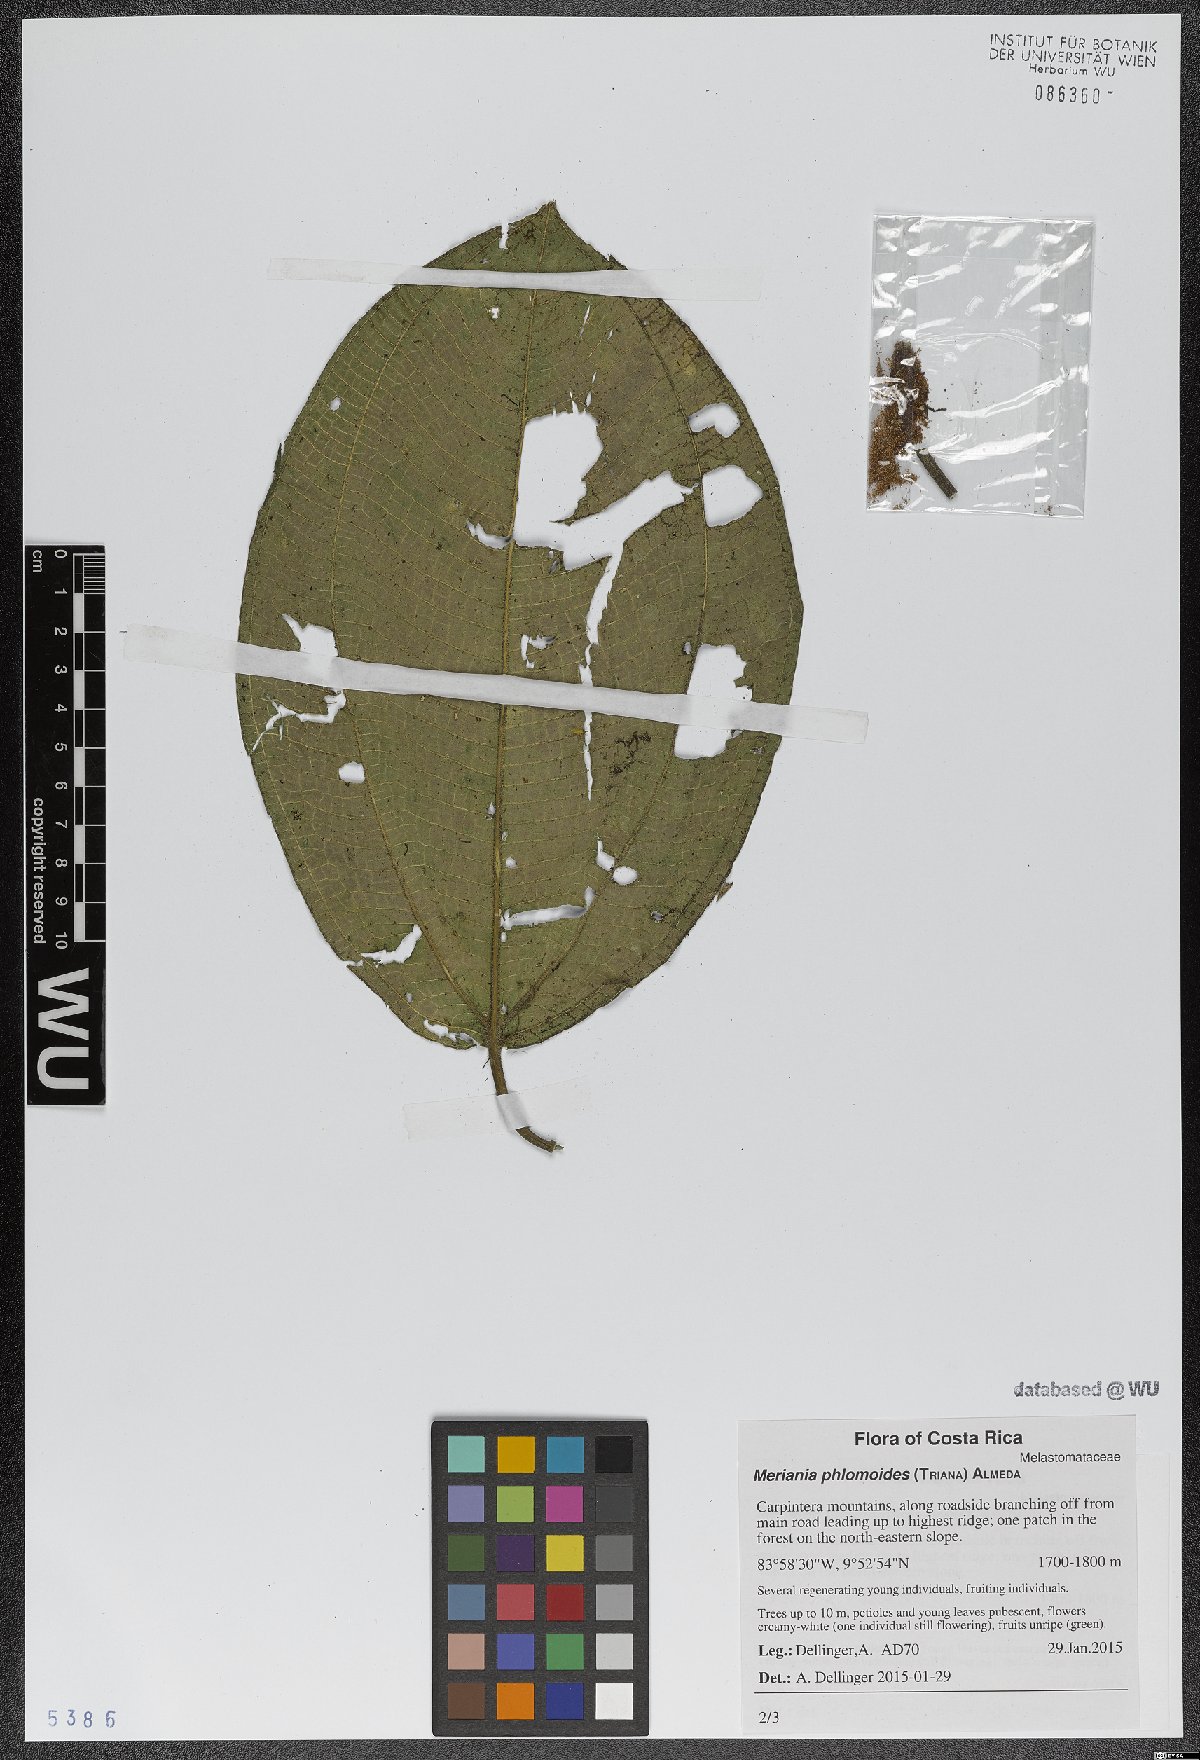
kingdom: Plantae
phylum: Tracheophyta
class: Magnoliopsida
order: Myrtales
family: Melastomataceae
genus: Meriania
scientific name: Meriania phlomoides
